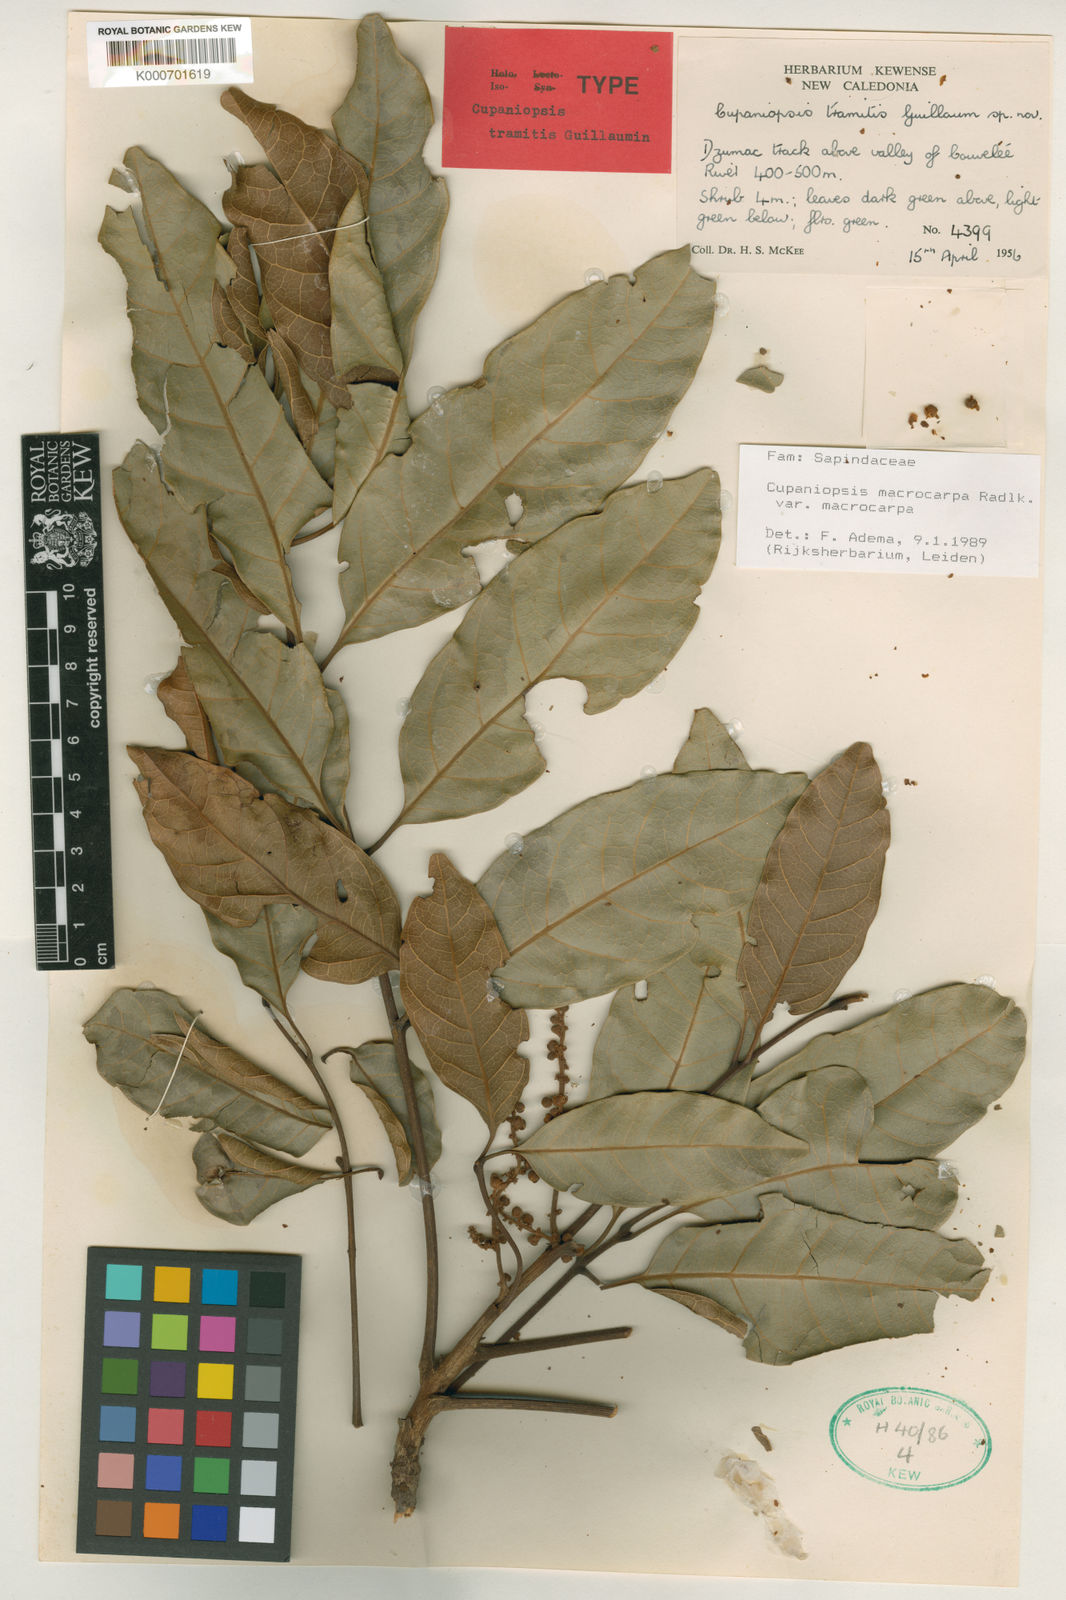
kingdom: Plantae
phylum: Tracheophyta
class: Magnoliopsida
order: Sapindales
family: Sapindaceae
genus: Cupaniopsis
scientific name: Cupaniopsis macrocarpa
